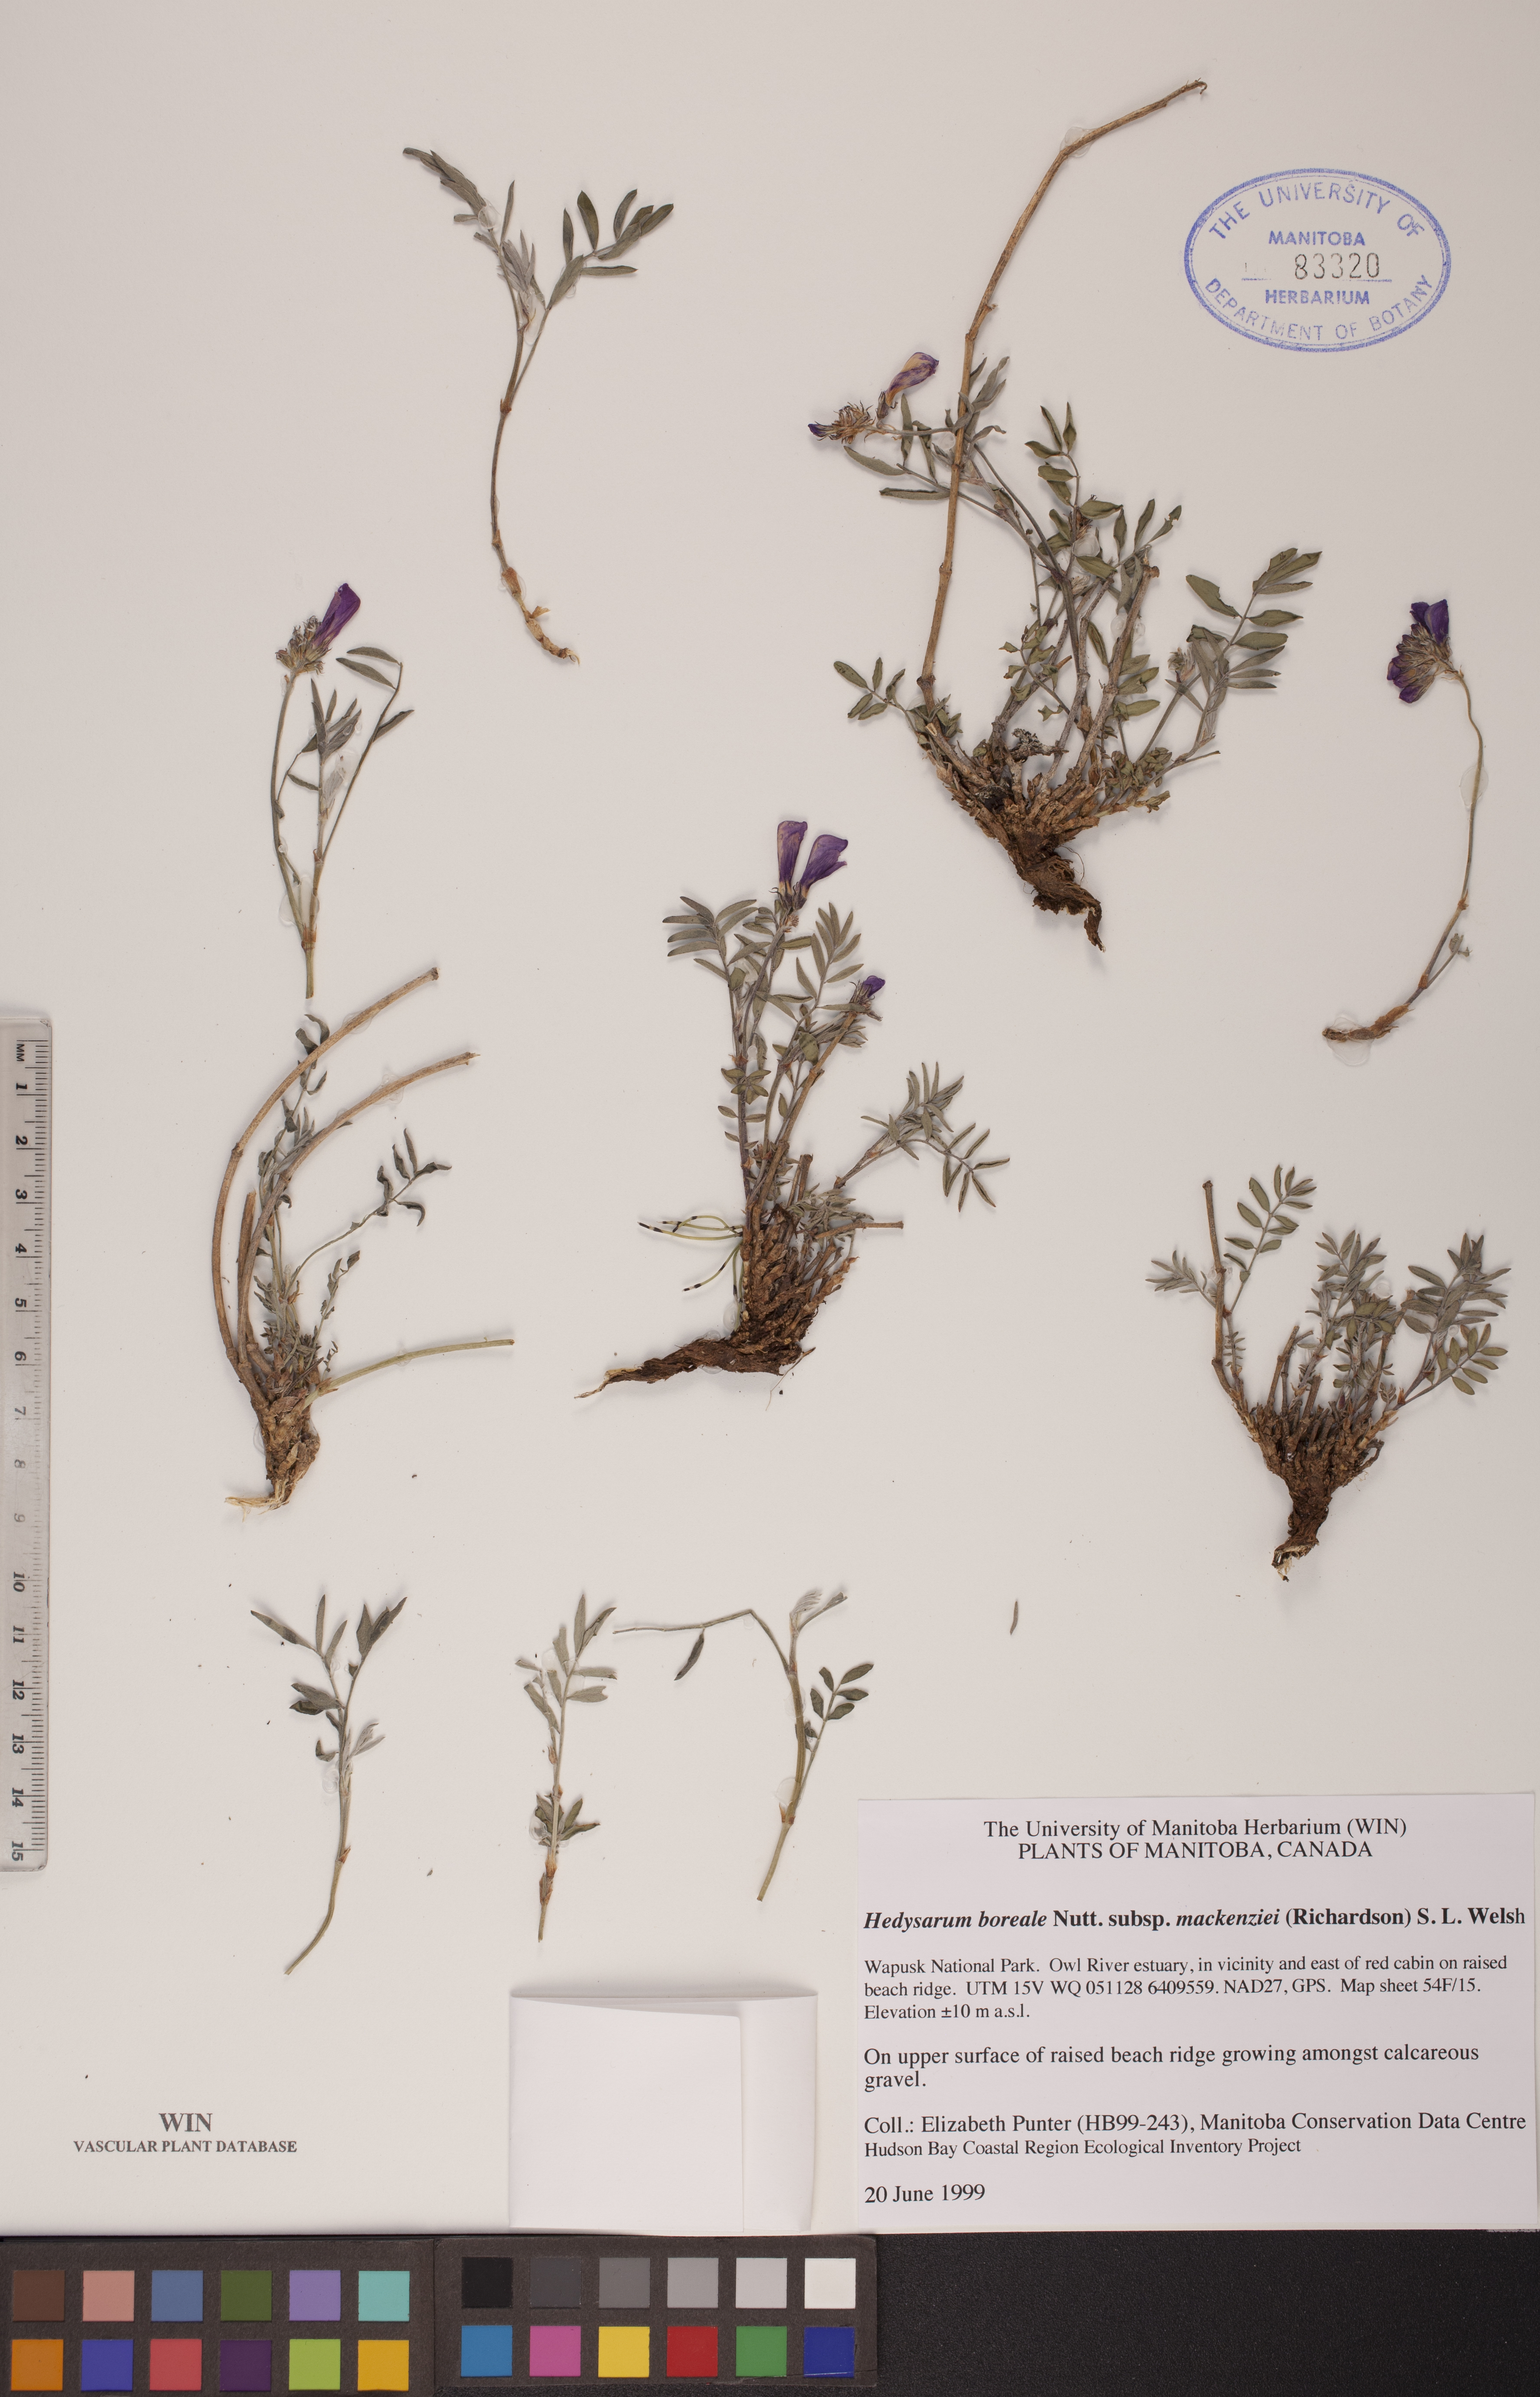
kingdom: Plantae
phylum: Tracheophyta
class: Magnoliopsida
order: Fabales
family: Fabaceae
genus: Hedysarum
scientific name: Hedysarum boreale
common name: Northern sweet-vetch
